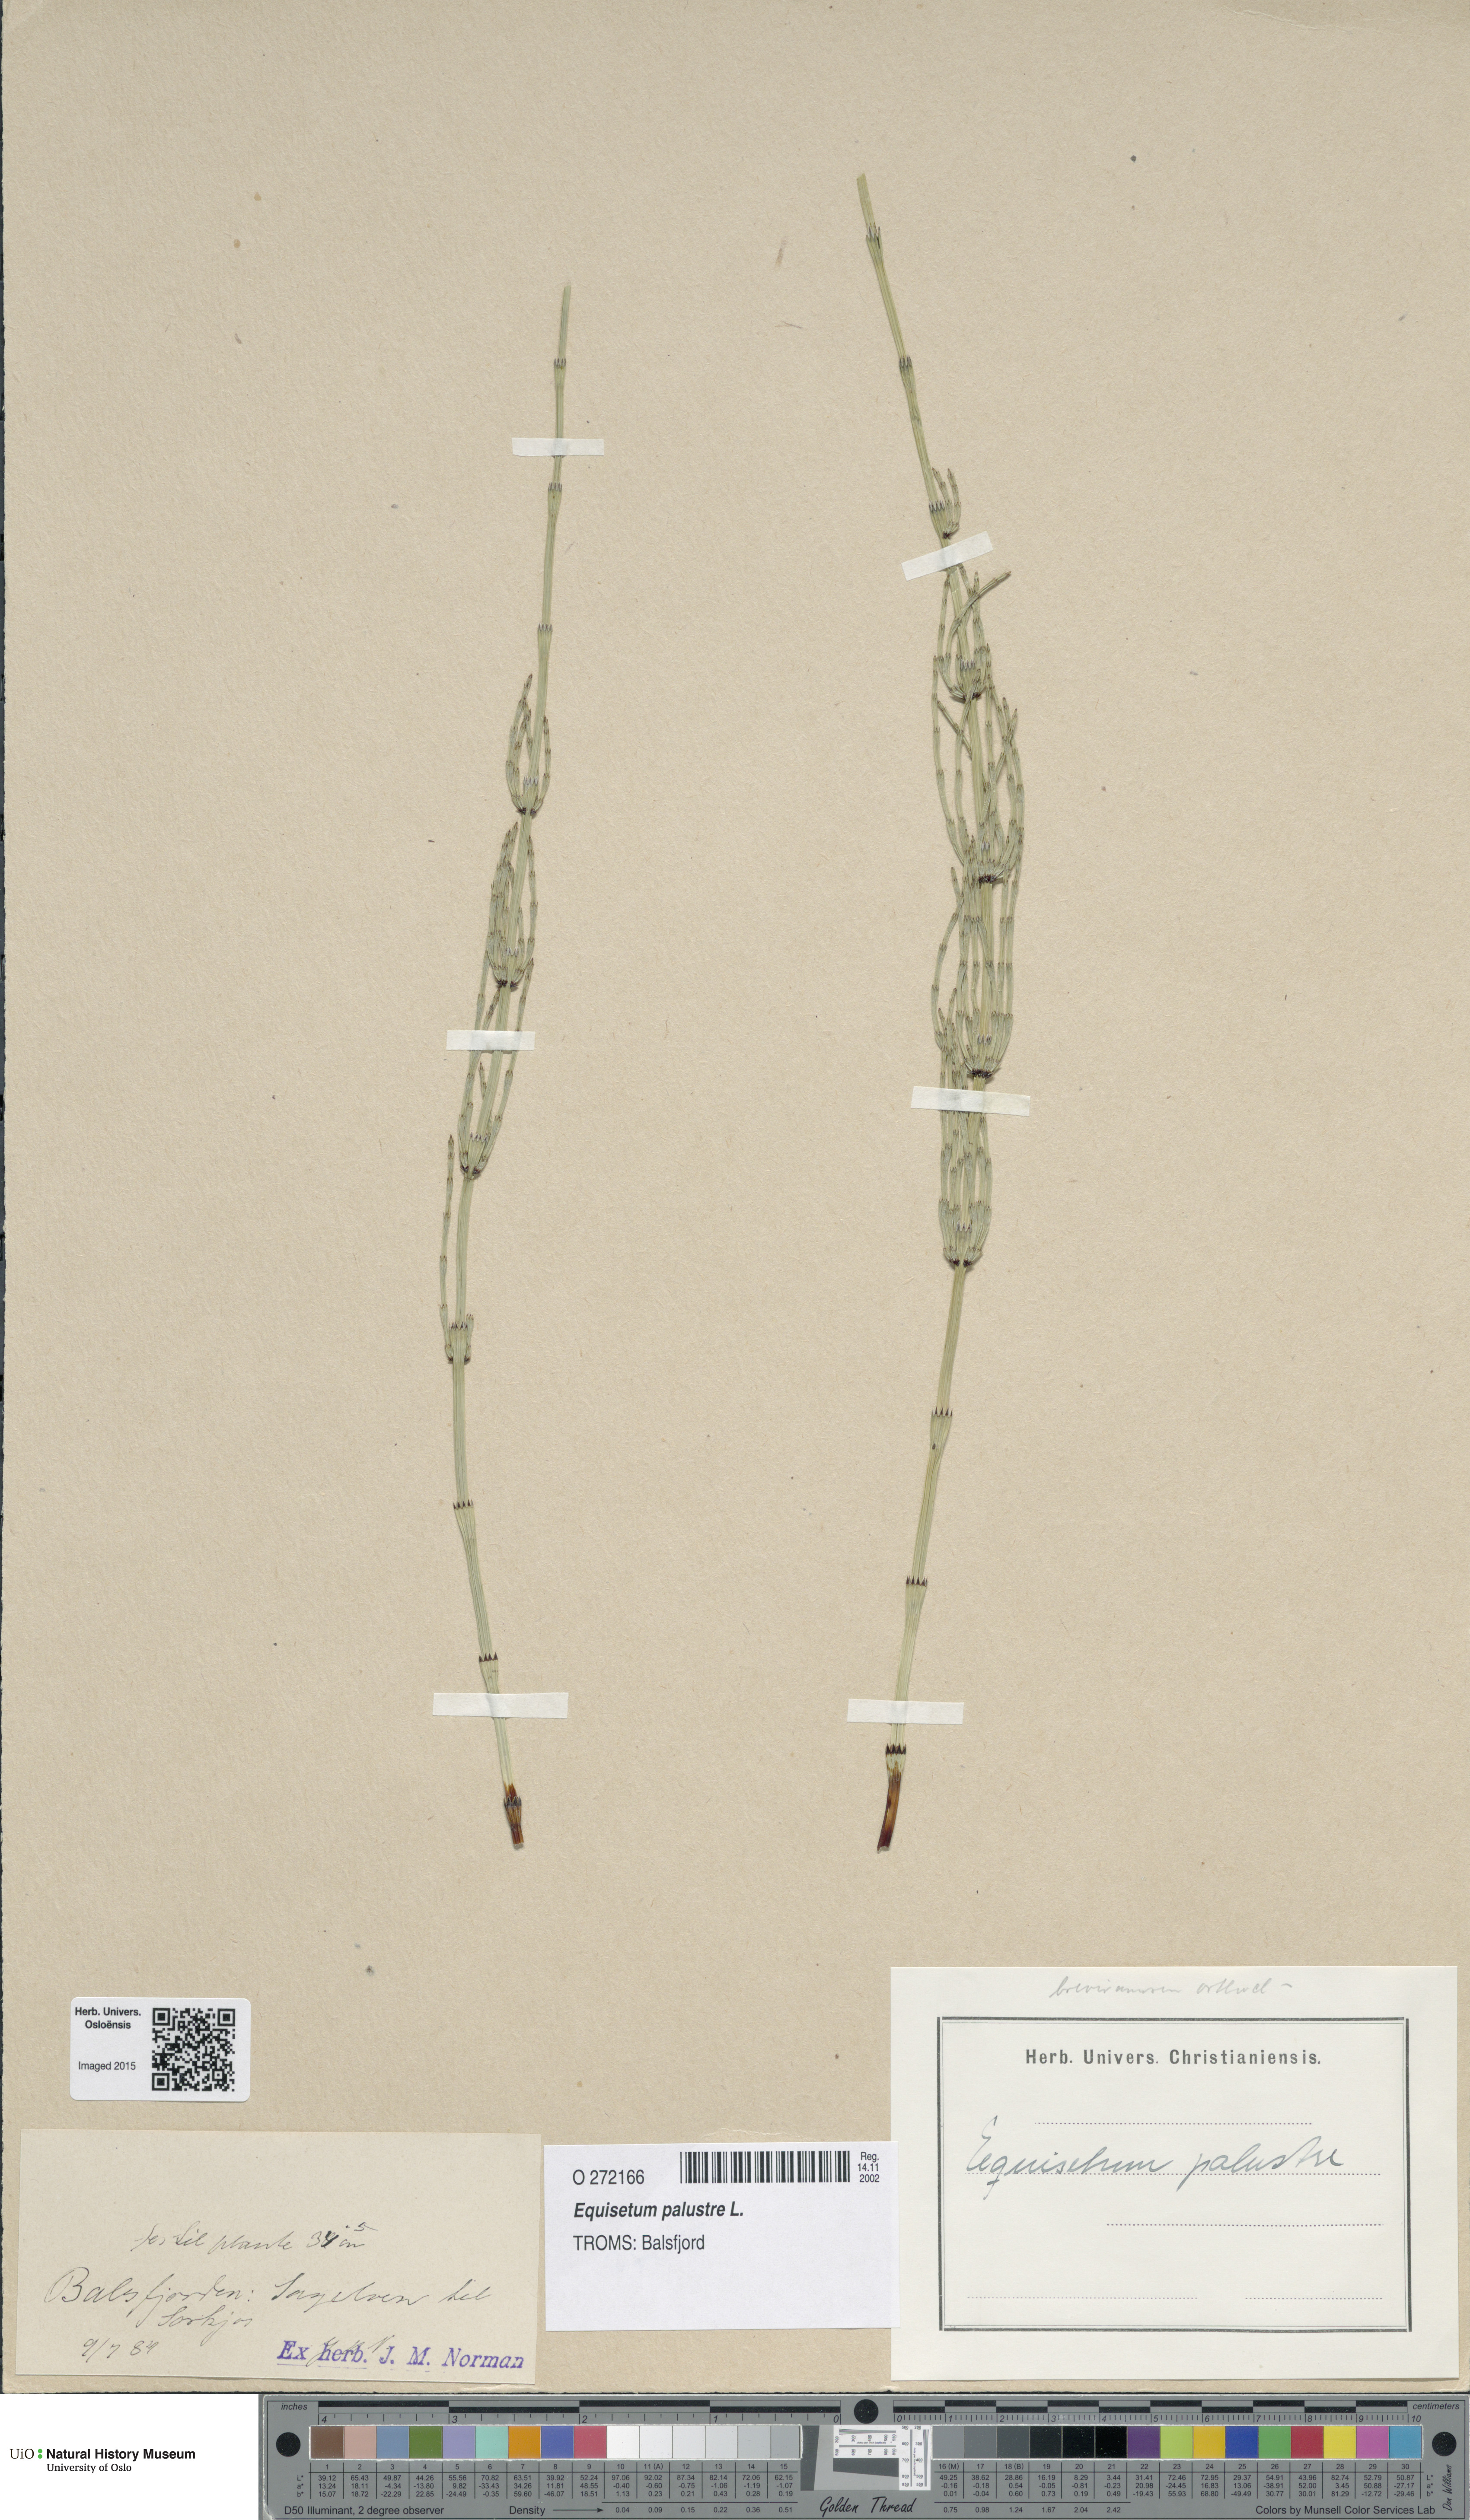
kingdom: Plantae
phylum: Tracheophyta
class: Polypodiopsida
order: Equisetales
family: Equisetaceae
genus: Equisetum
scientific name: Equisetum palustre
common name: Marsh horsetail
